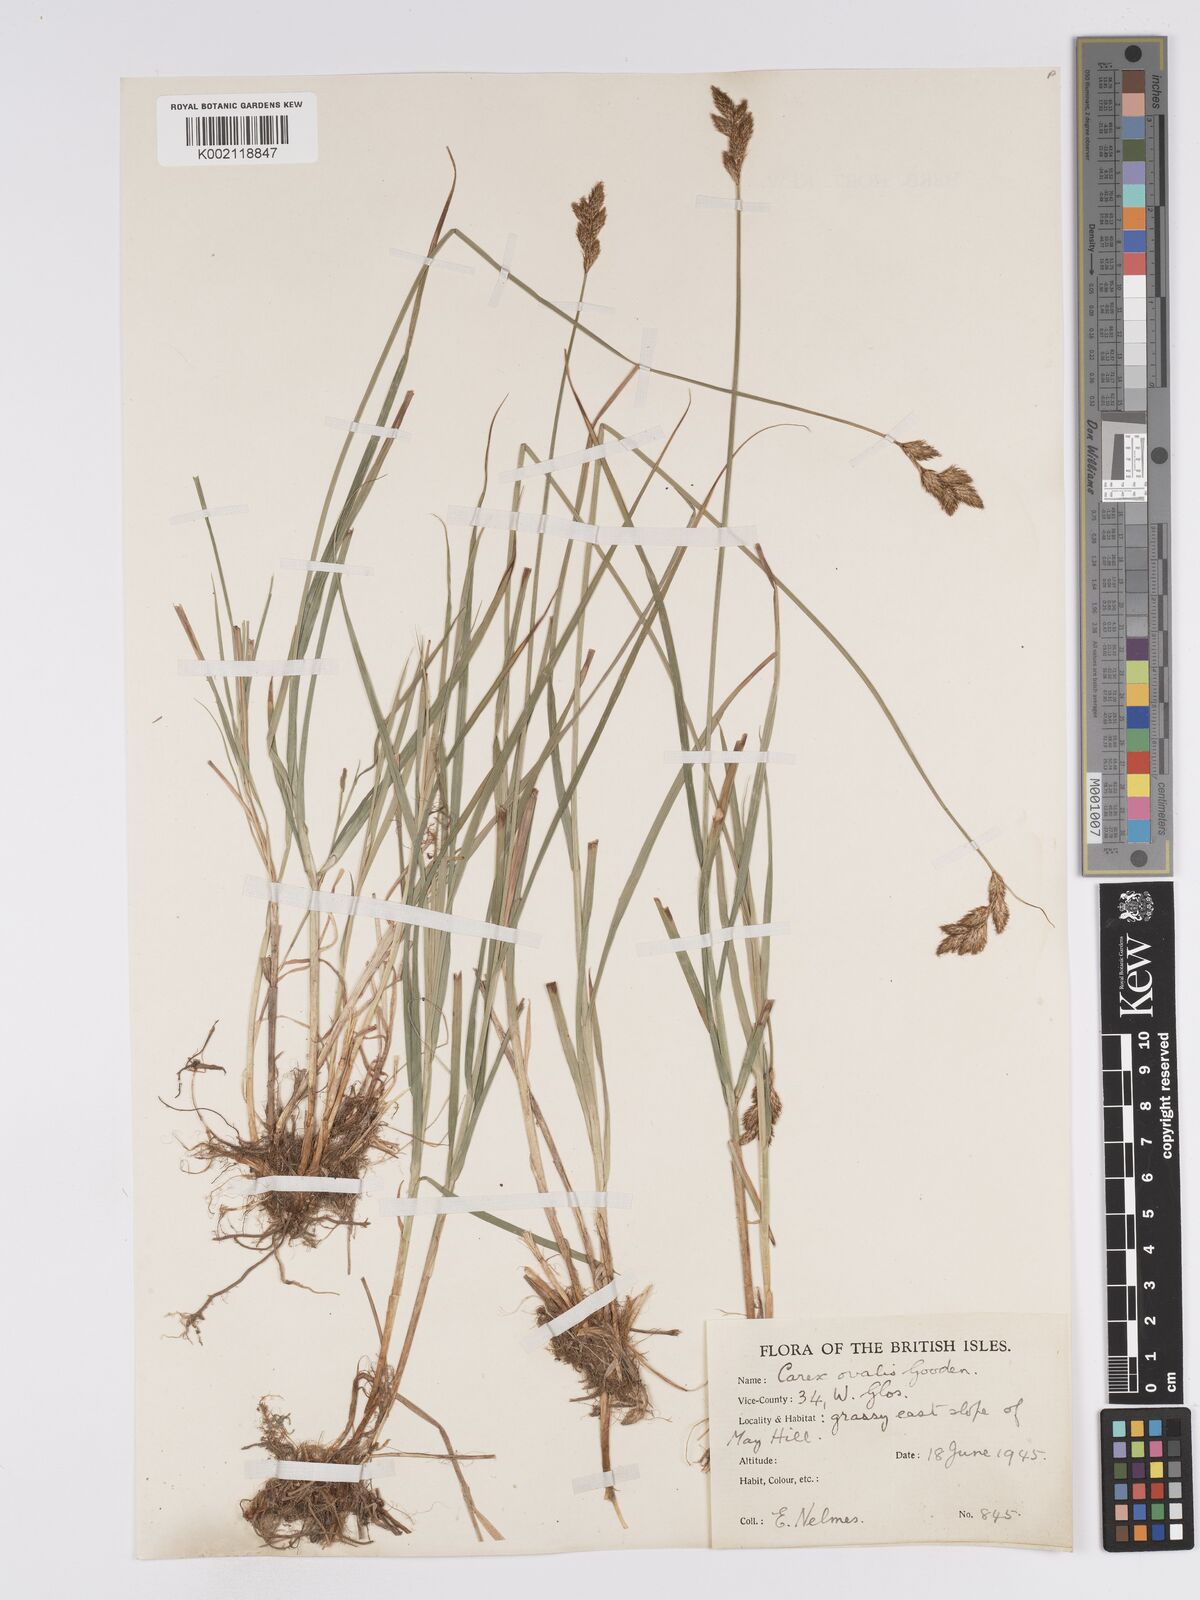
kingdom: Plantae
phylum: Tracheophyta
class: Liliopsida
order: Poales
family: Cyperaceae
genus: Carex
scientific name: Carex leporina
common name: Oval sedge
